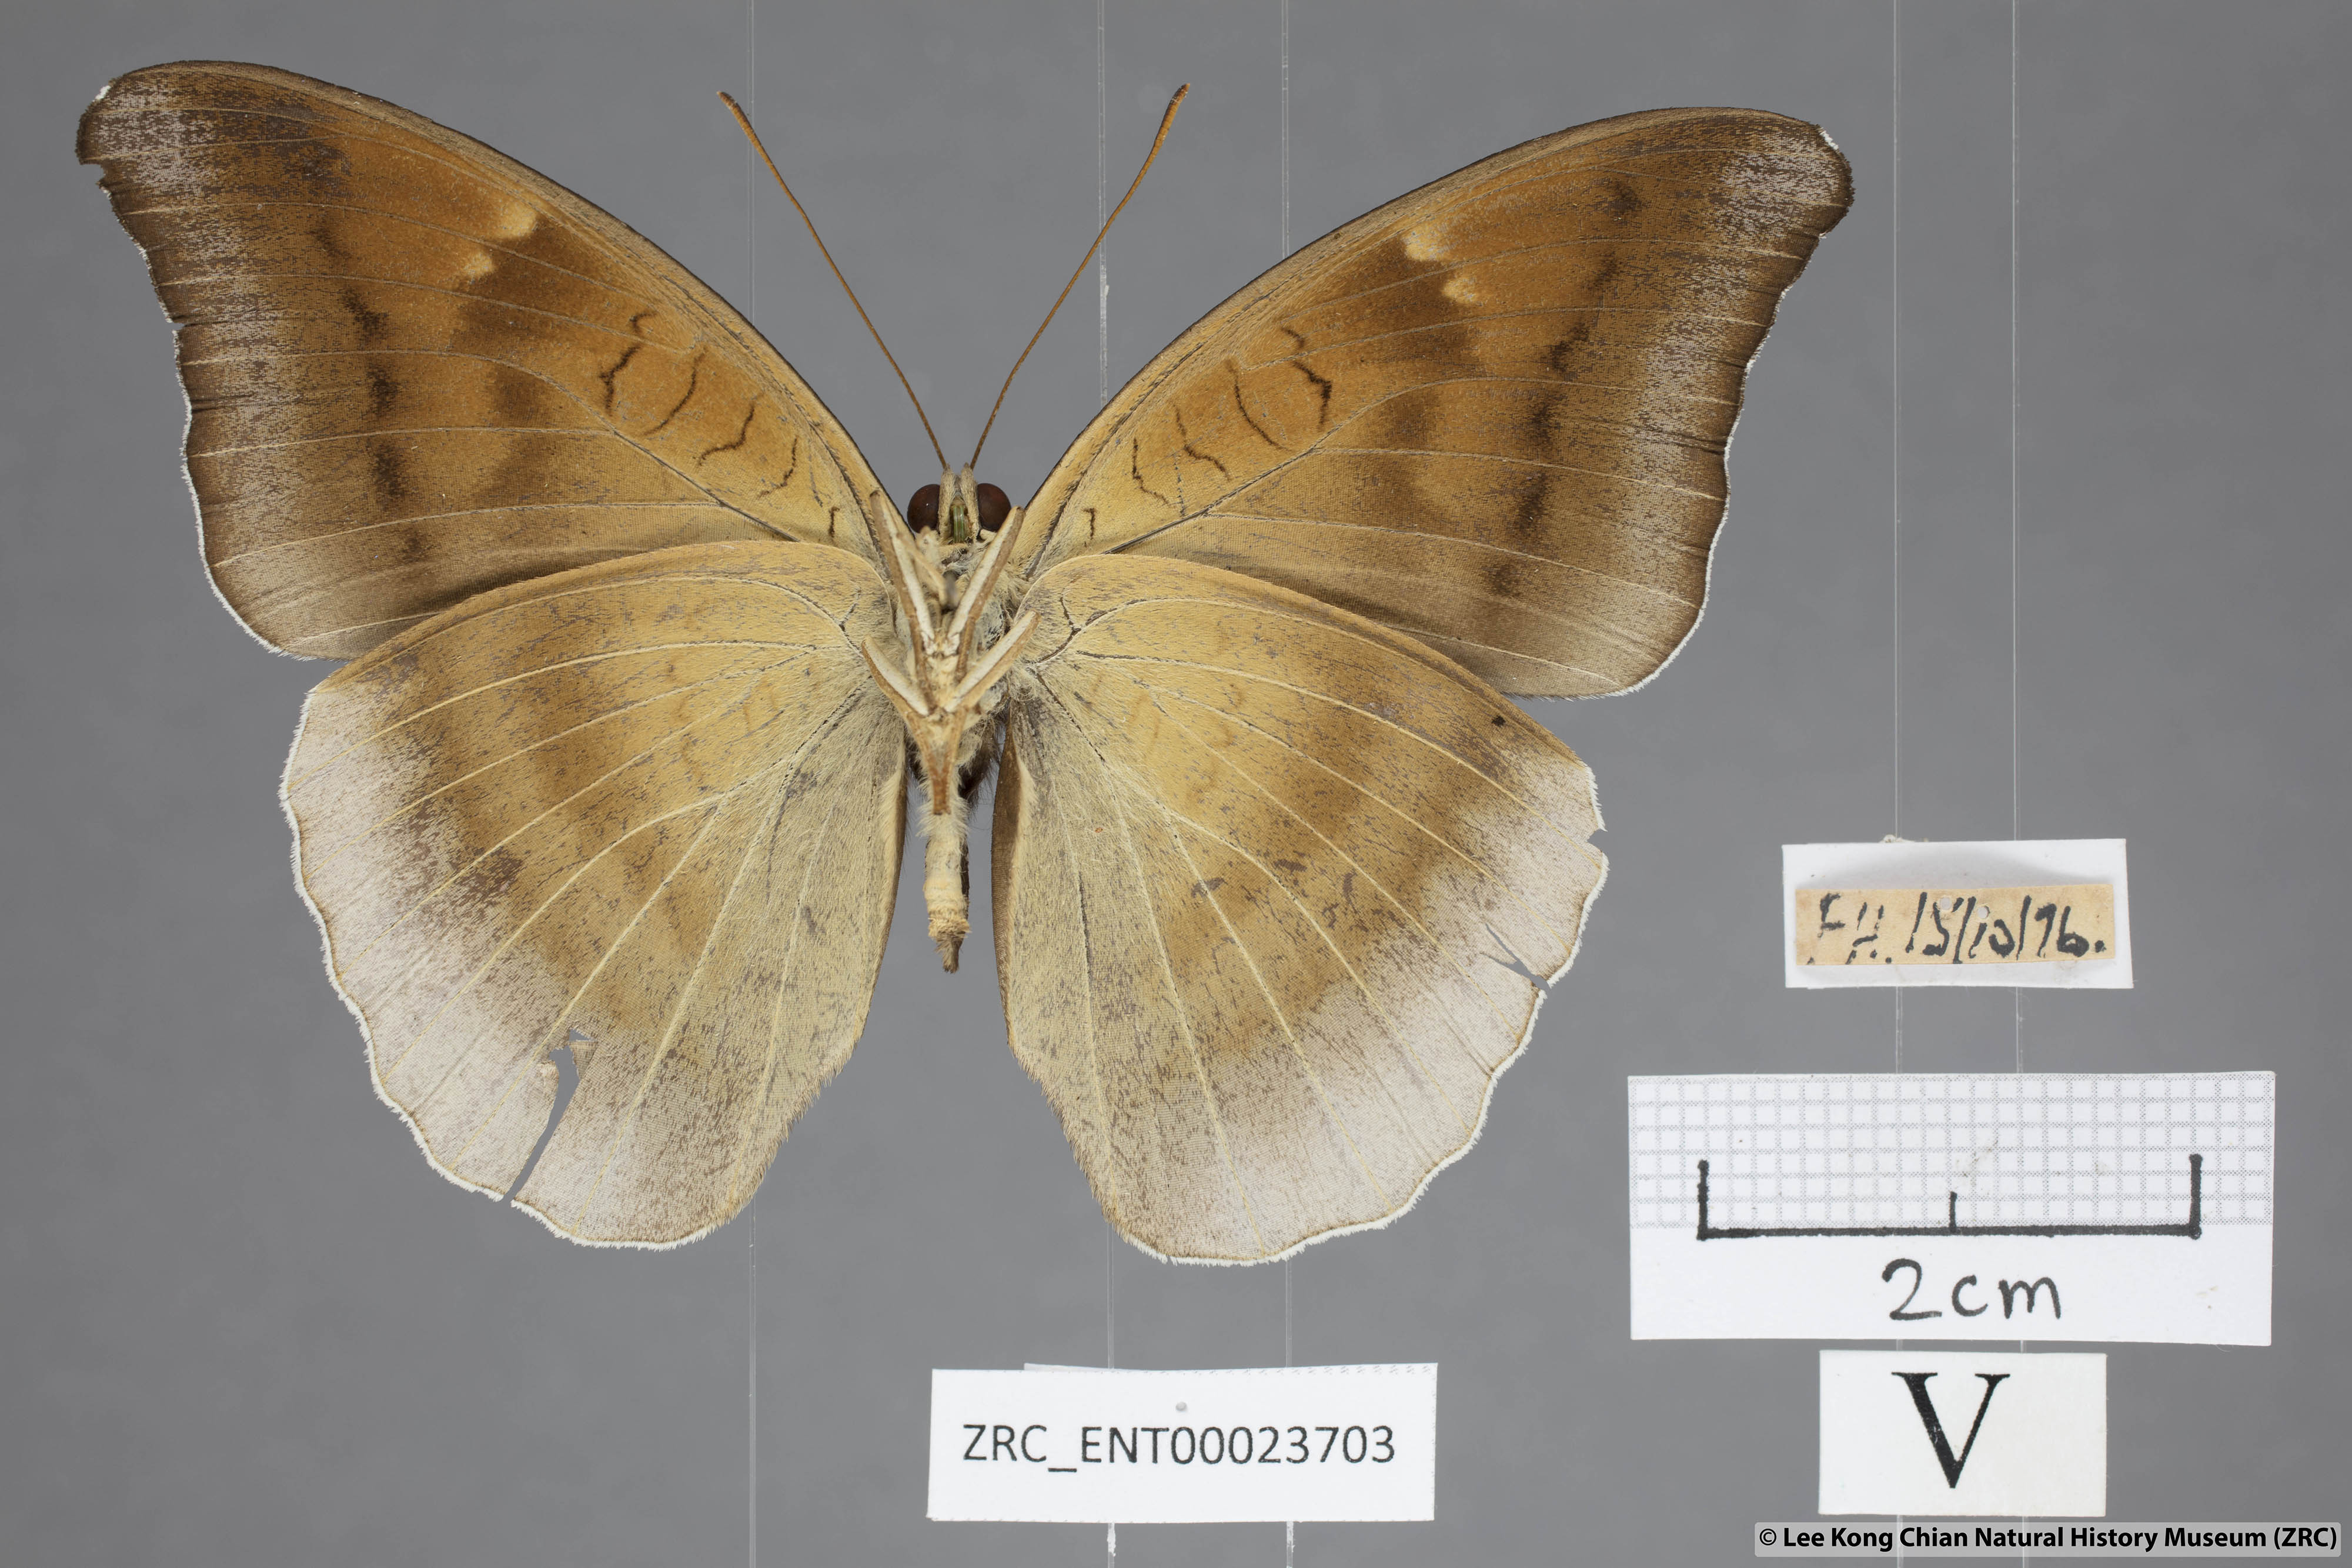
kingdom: Animalia
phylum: Arthropoda
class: Insecta
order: Lepidoptera
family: Nymphalidae
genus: Tanaecia
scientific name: Tanaecia lepidea
